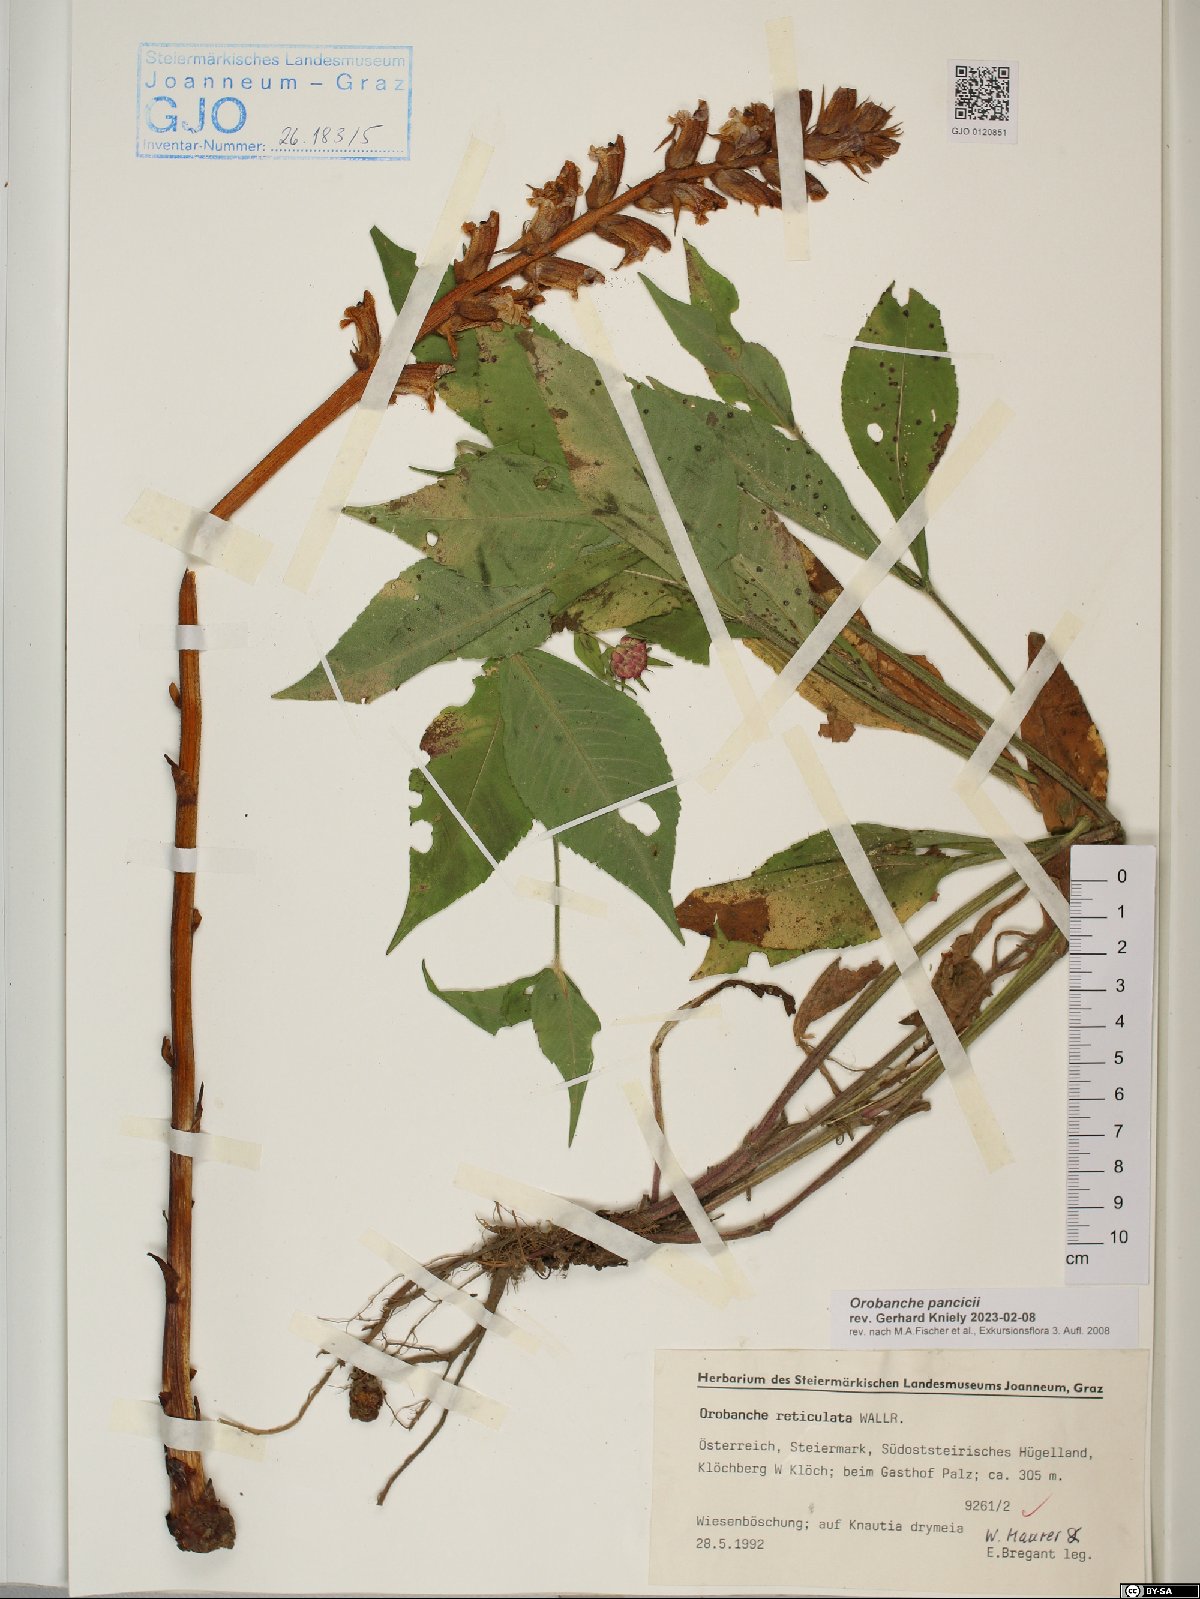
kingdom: Plantae
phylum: Tracheophyta
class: Magnoliopsida
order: Lamiales
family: Orobanchaceae
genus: Orobanche
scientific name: Orobanche pancicii
